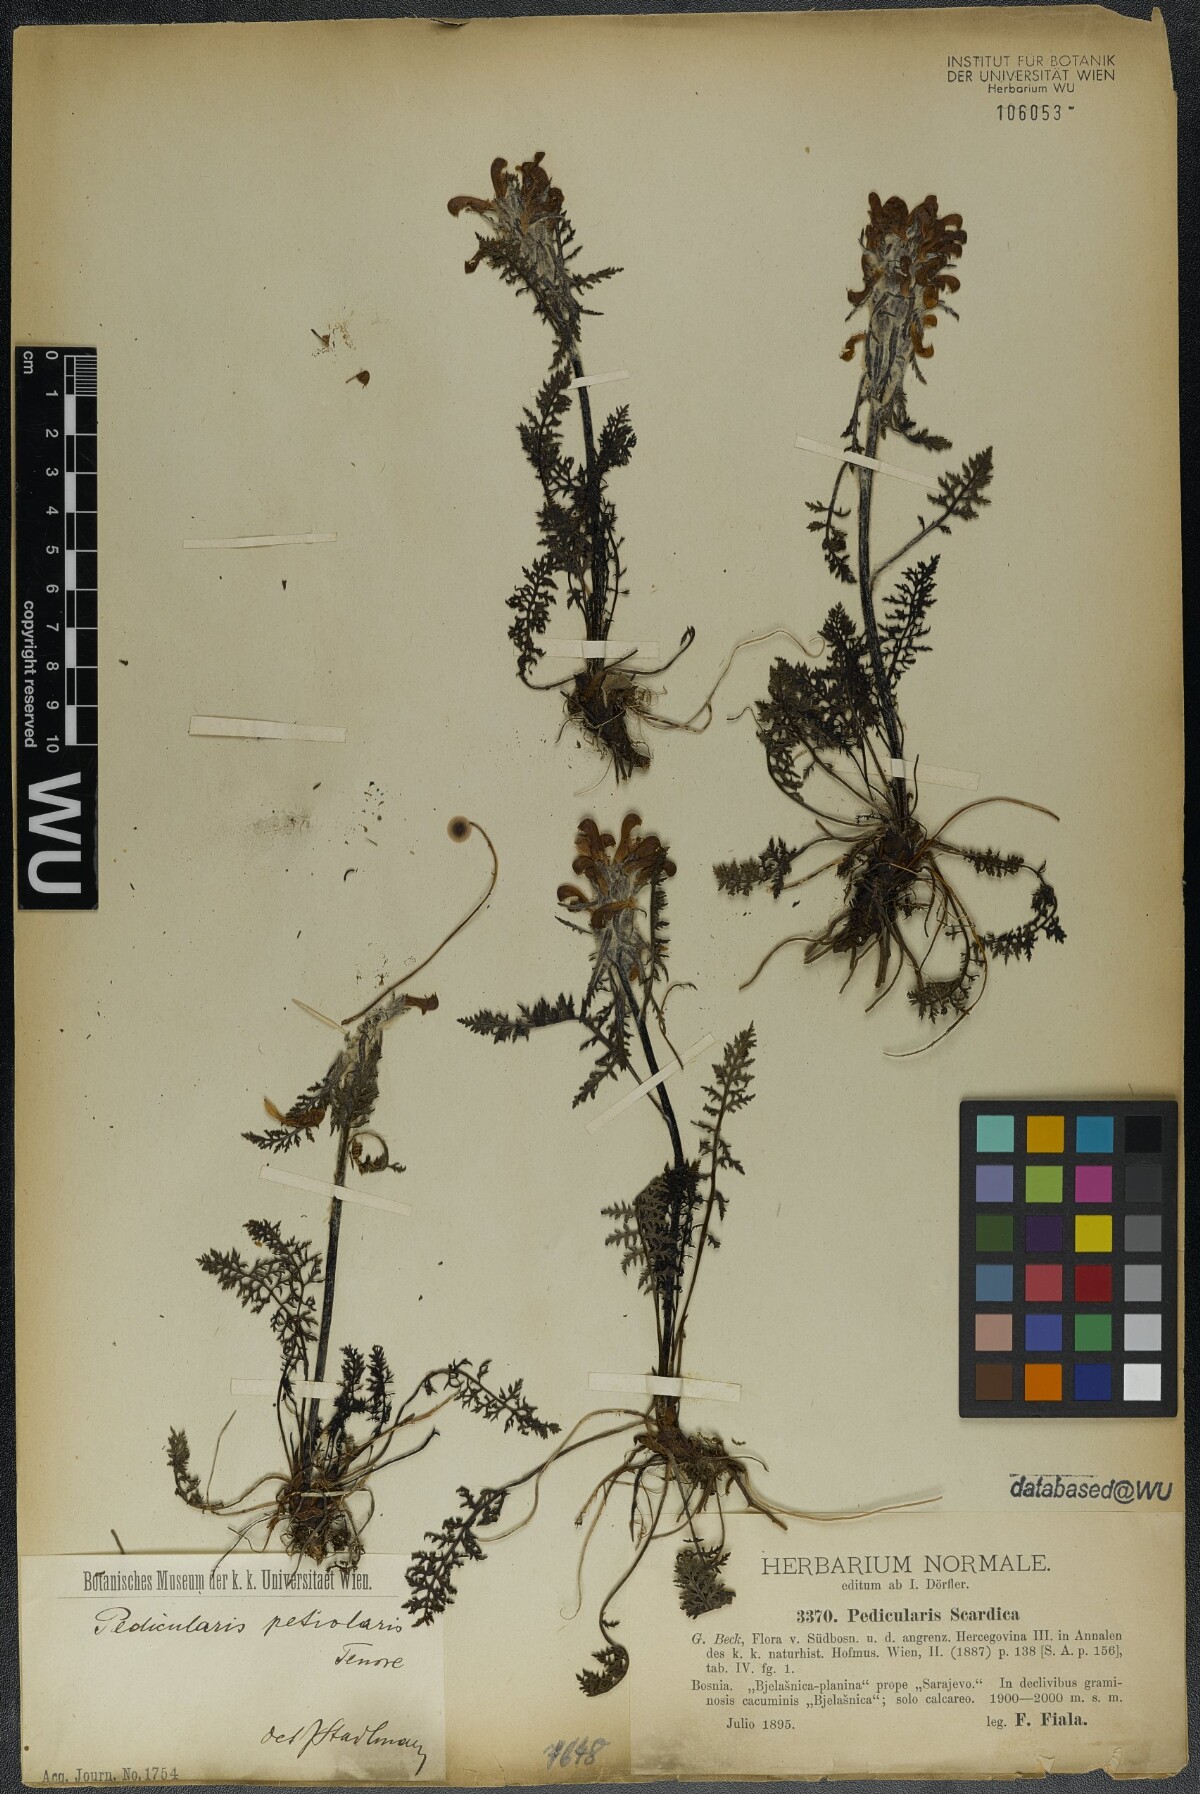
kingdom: Plantae
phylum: Tracheophyta
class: Magnoliopsida
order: Lamiales
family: Orobanchaceae
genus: Pedicularis
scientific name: Pedicularis petiolaris
